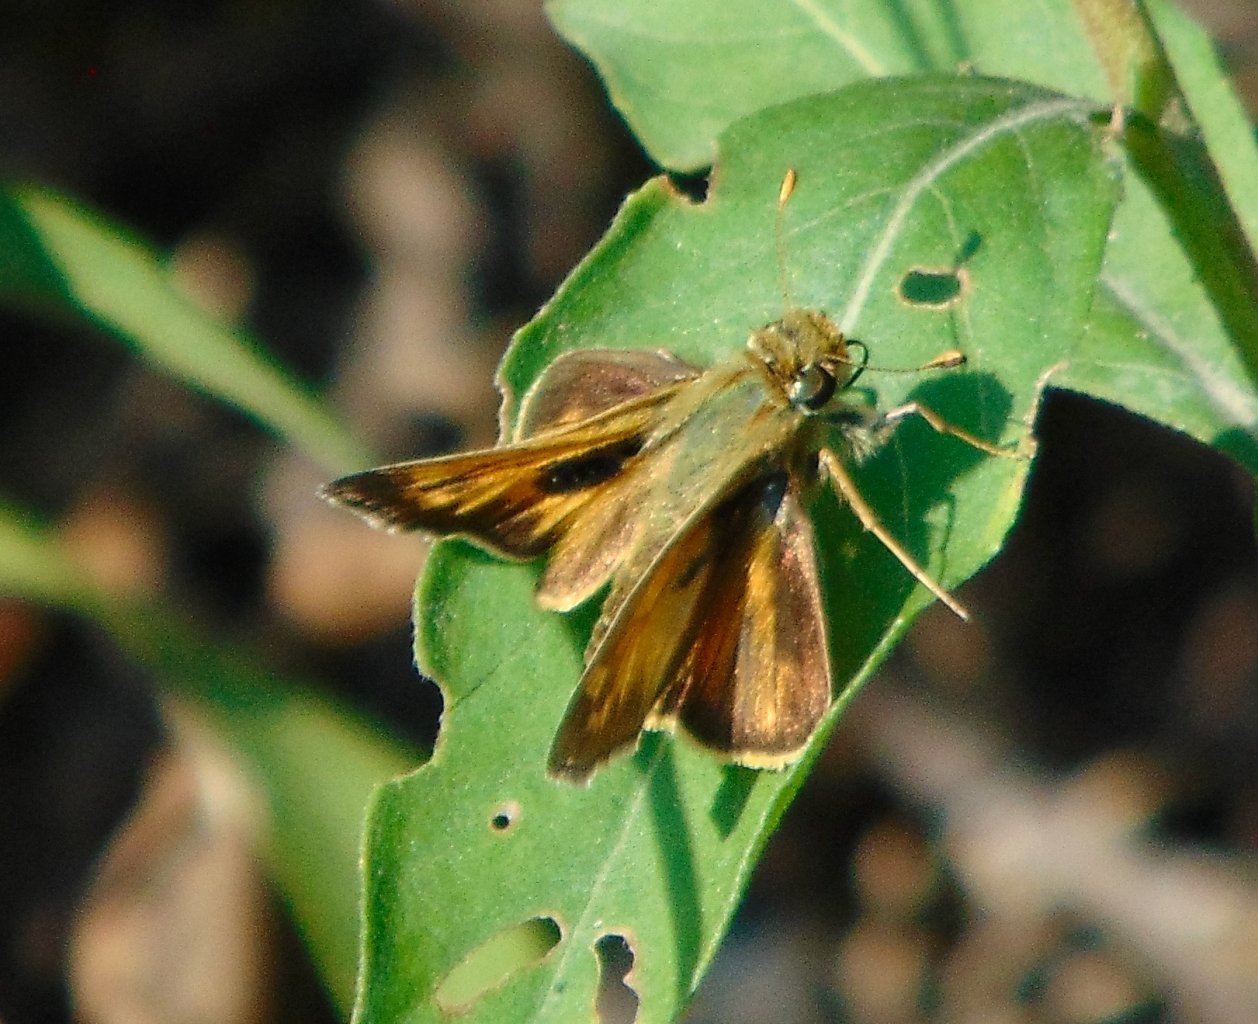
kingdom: Animalia
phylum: Arthropoda
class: Insecta
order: Lepidoptera
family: Hesperiidae
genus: Atalopedes
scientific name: Atalopedes campestris
